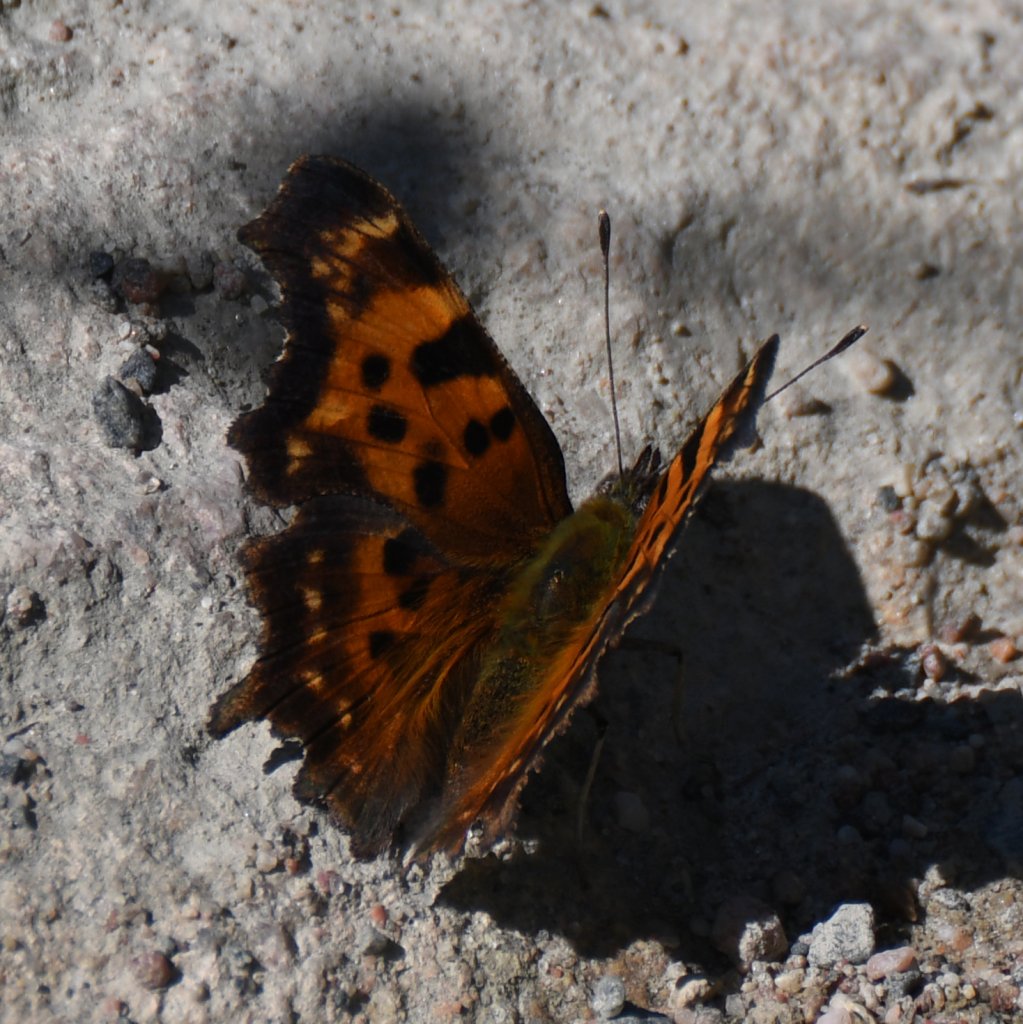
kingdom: Animalia
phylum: Arthropoda
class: Insecta
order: Lepidoptera
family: Nymphalidae
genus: Polygonia
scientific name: Polygonia faunus
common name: Green Comma
